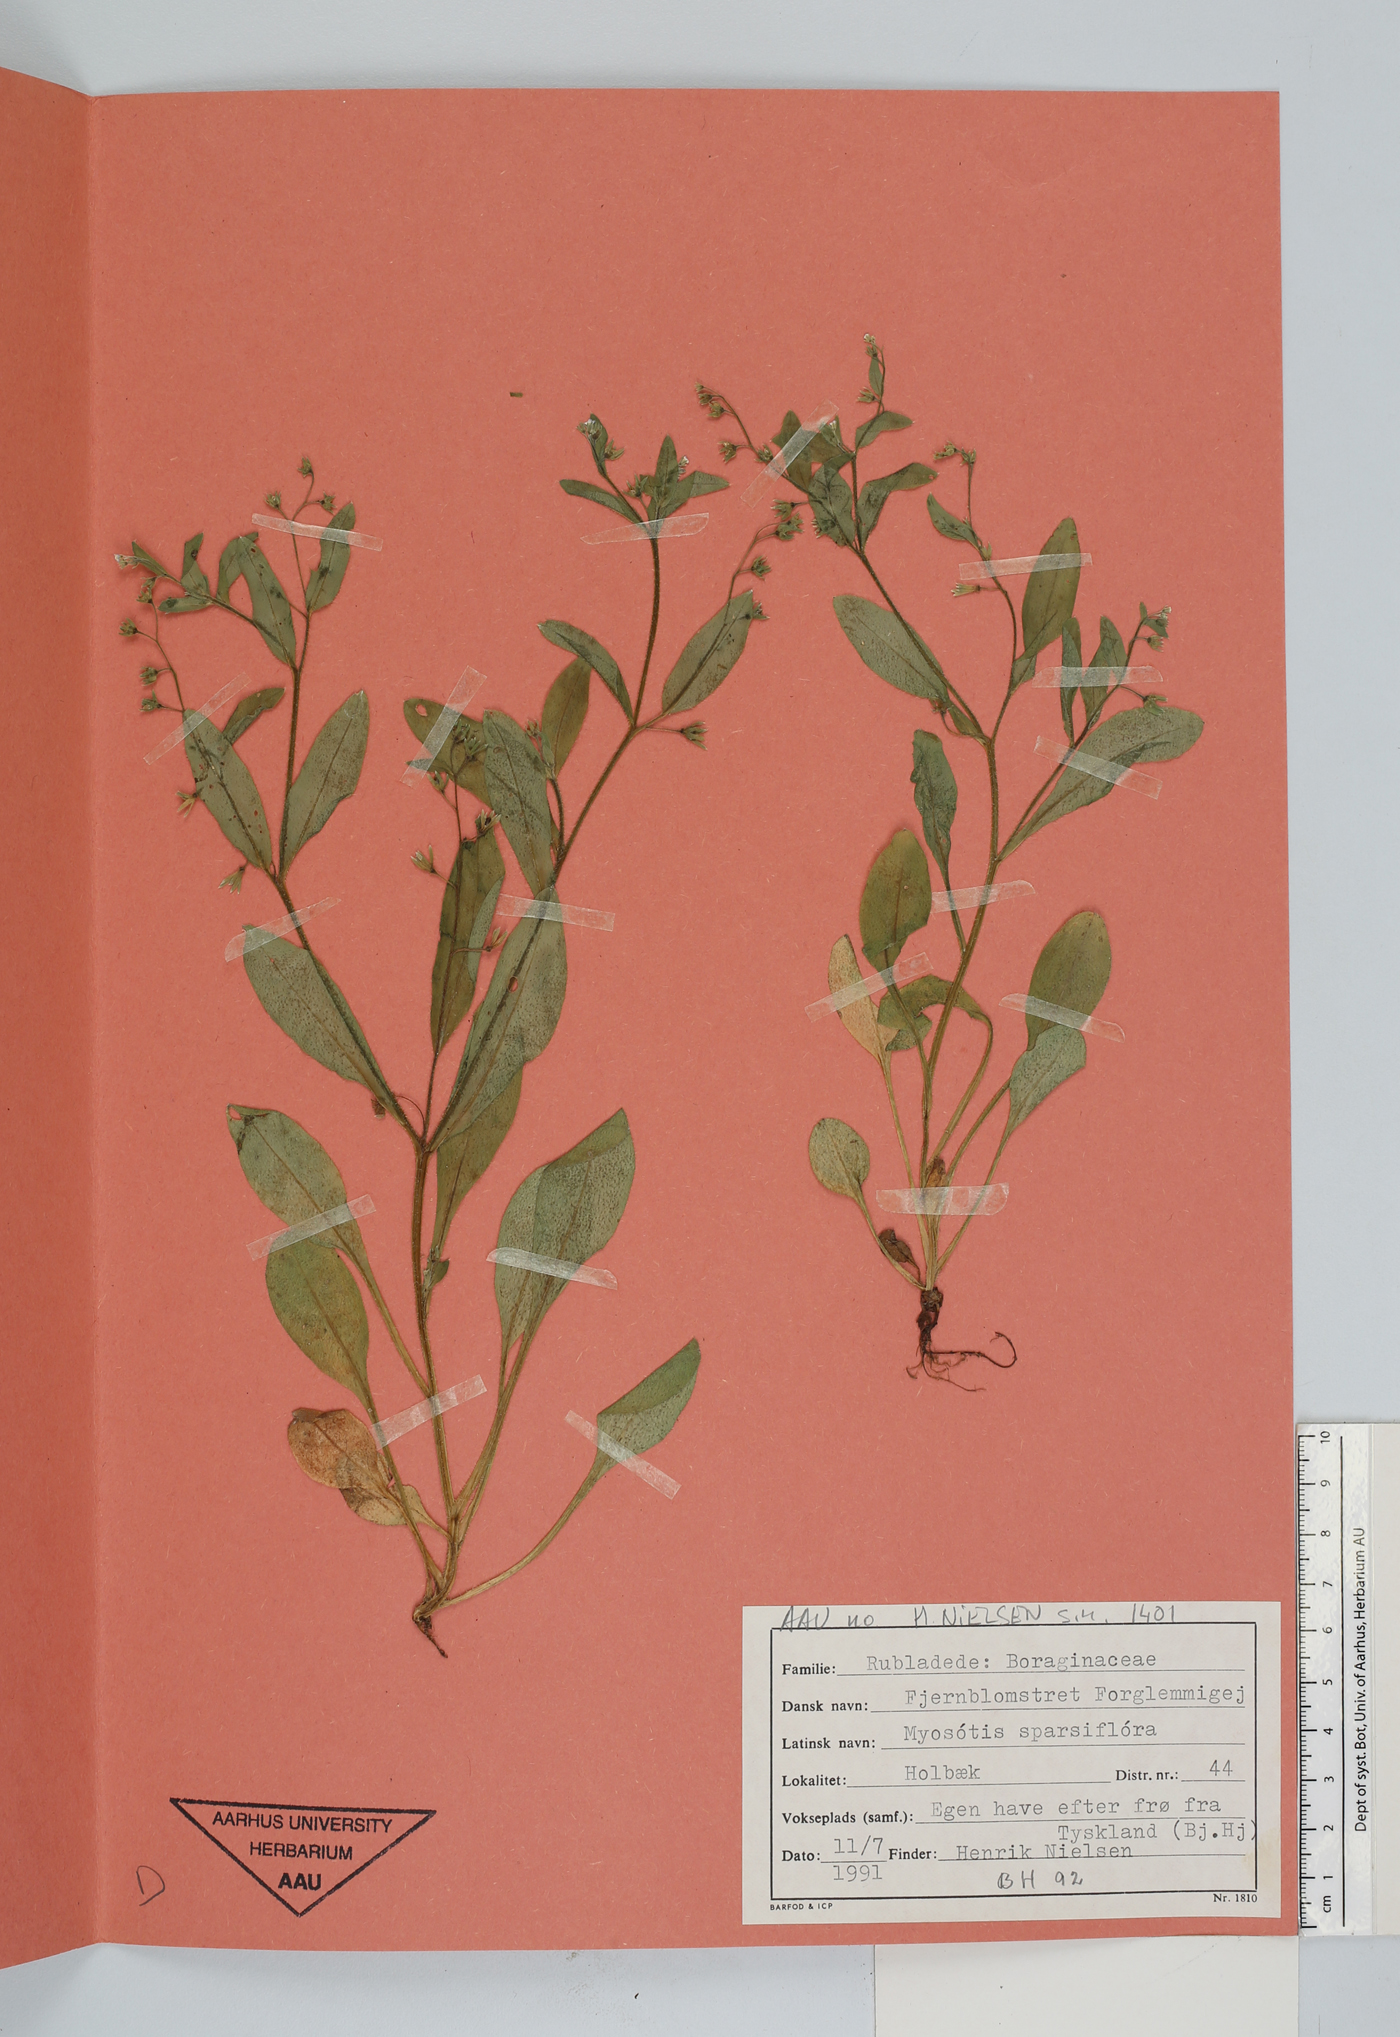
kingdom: Plantae
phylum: Tracheophyta
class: Magnoliopsida
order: Boraginales
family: Boraginaceae
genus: Myosotis
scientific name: Myosotis sparsiflora
